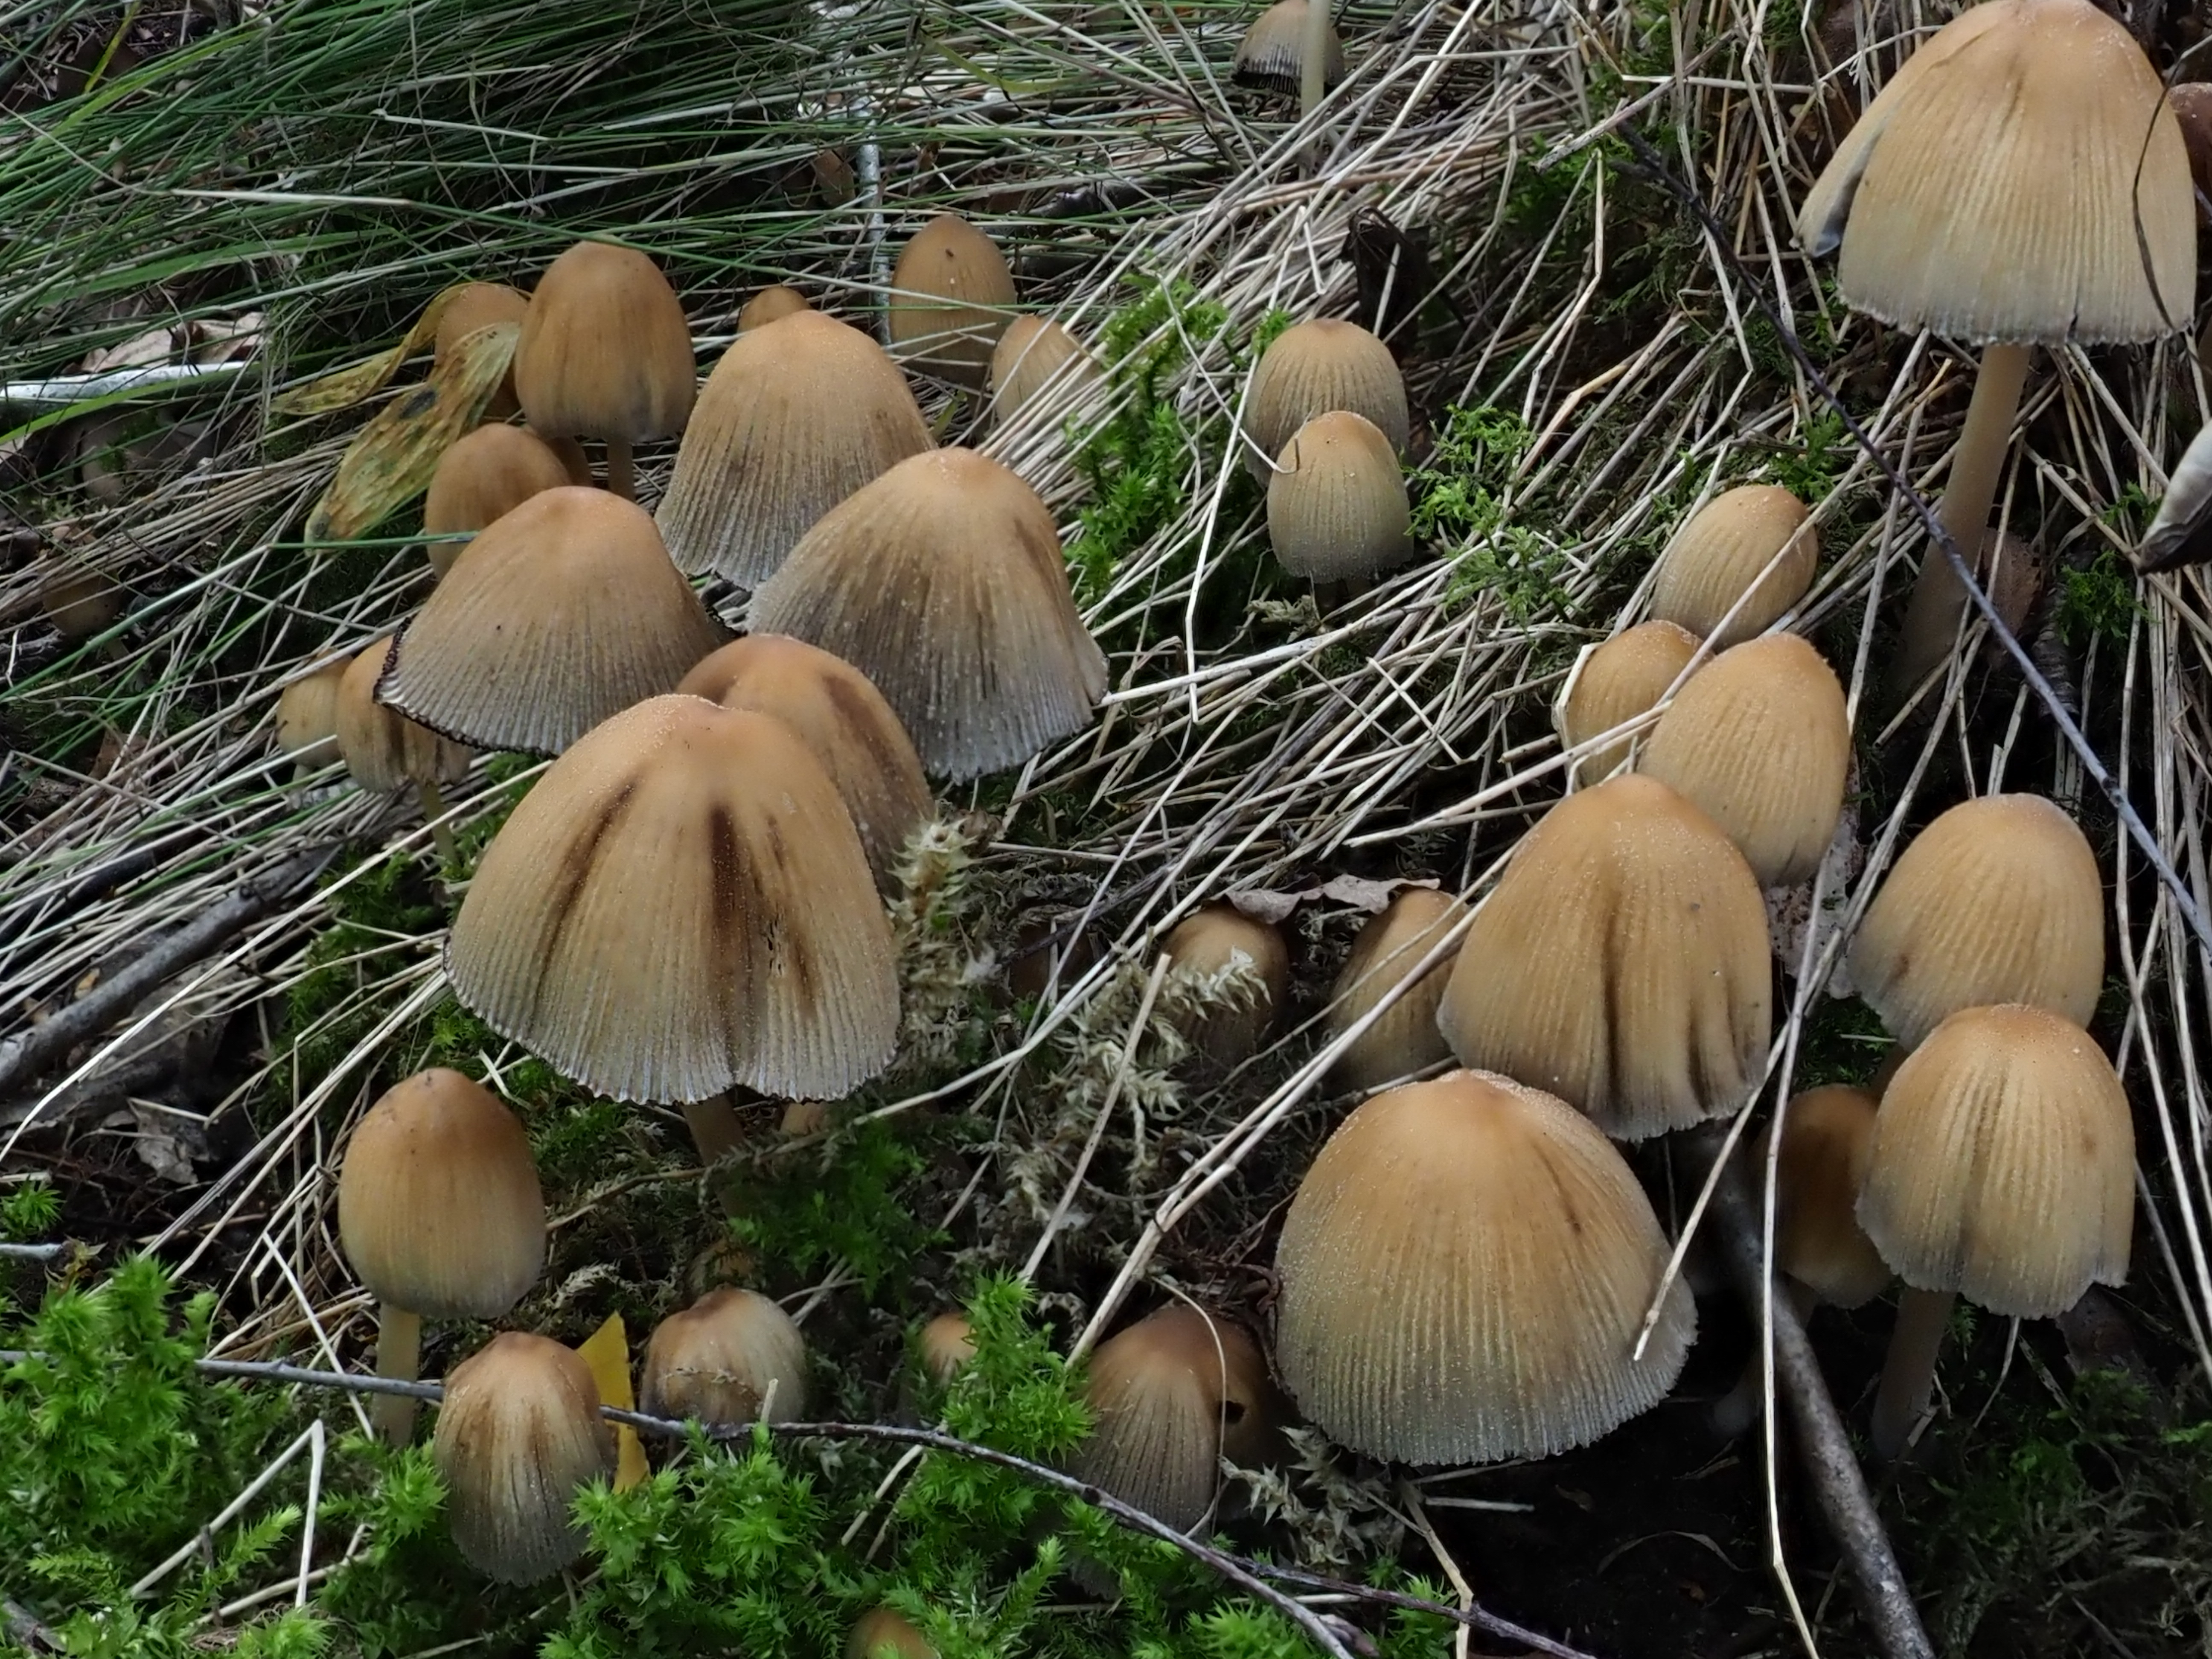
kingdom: Fungi
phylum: Basidiomycota
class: Agaricomycetes
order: Agaricales
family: Psathyrellaceae
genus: Coprinellus
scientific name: Coprinellus micaceus
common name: Glistening ink-cap
